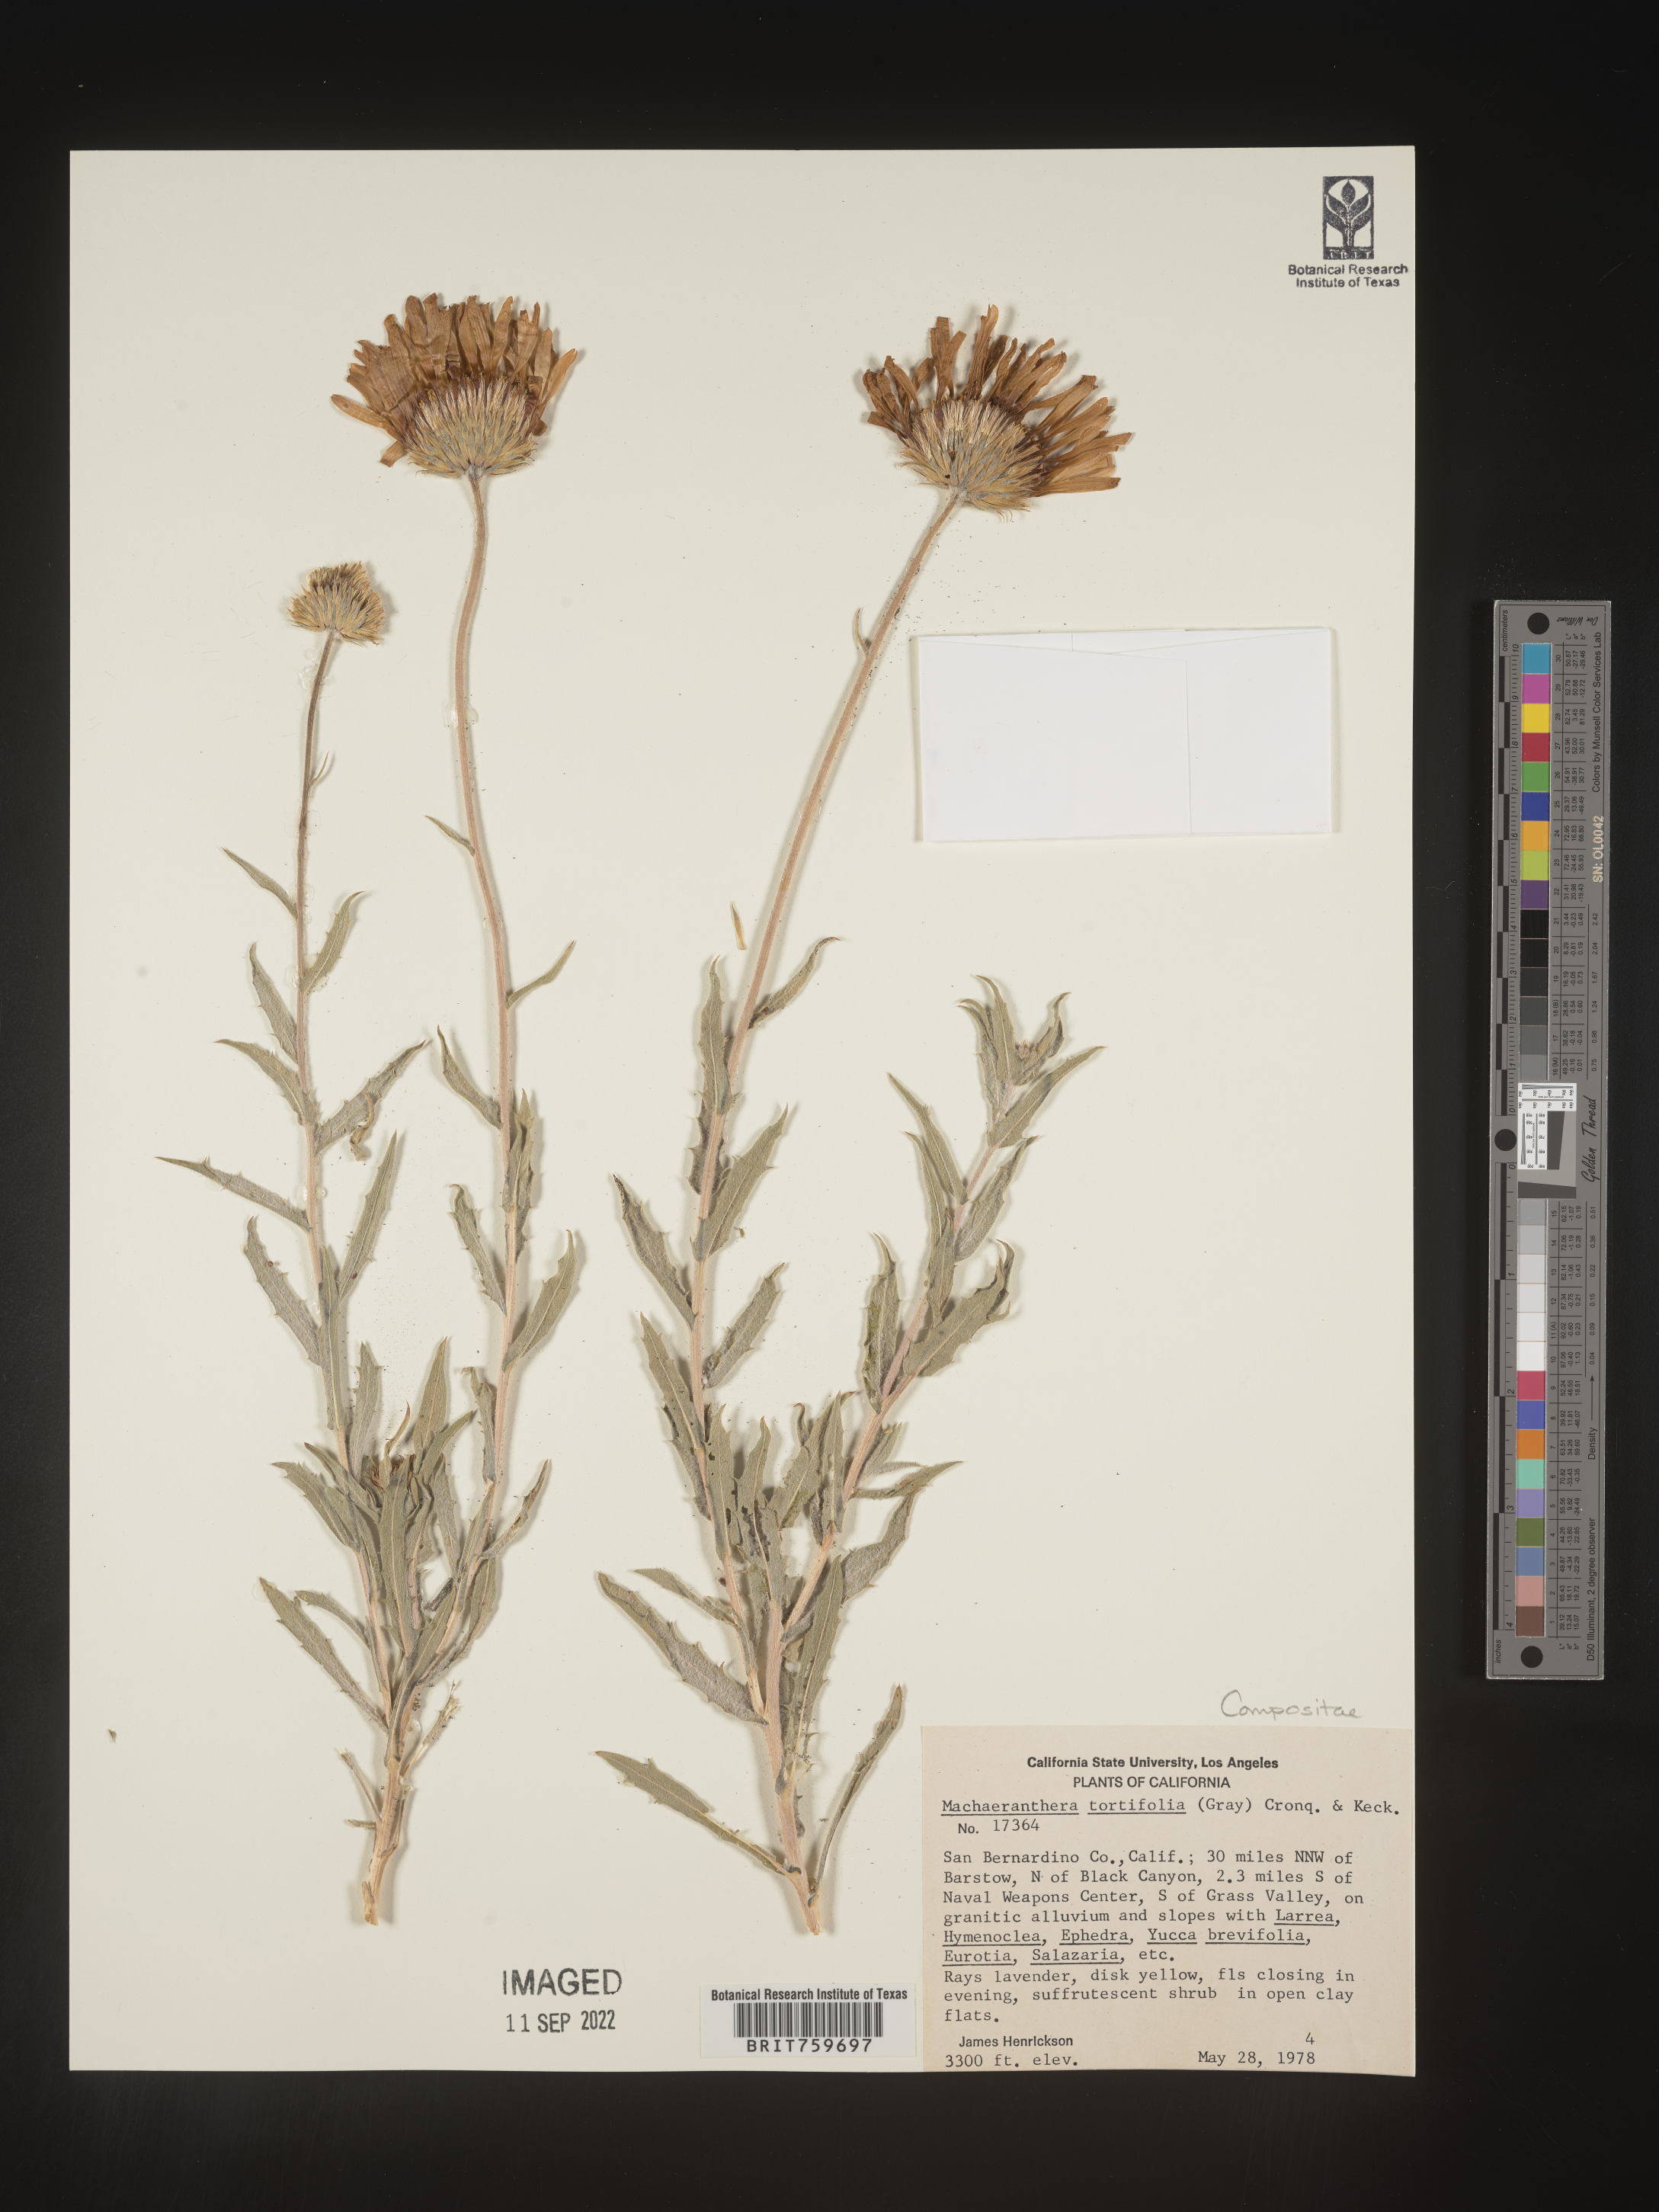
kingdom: Plantae
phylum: Tracheophyta
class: Magnoliopsida
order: Asterales
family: Asteraceae
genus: Xylorhiza
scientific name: Xylorhiza tortifolia
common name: Hurt-leaf woody-aster
